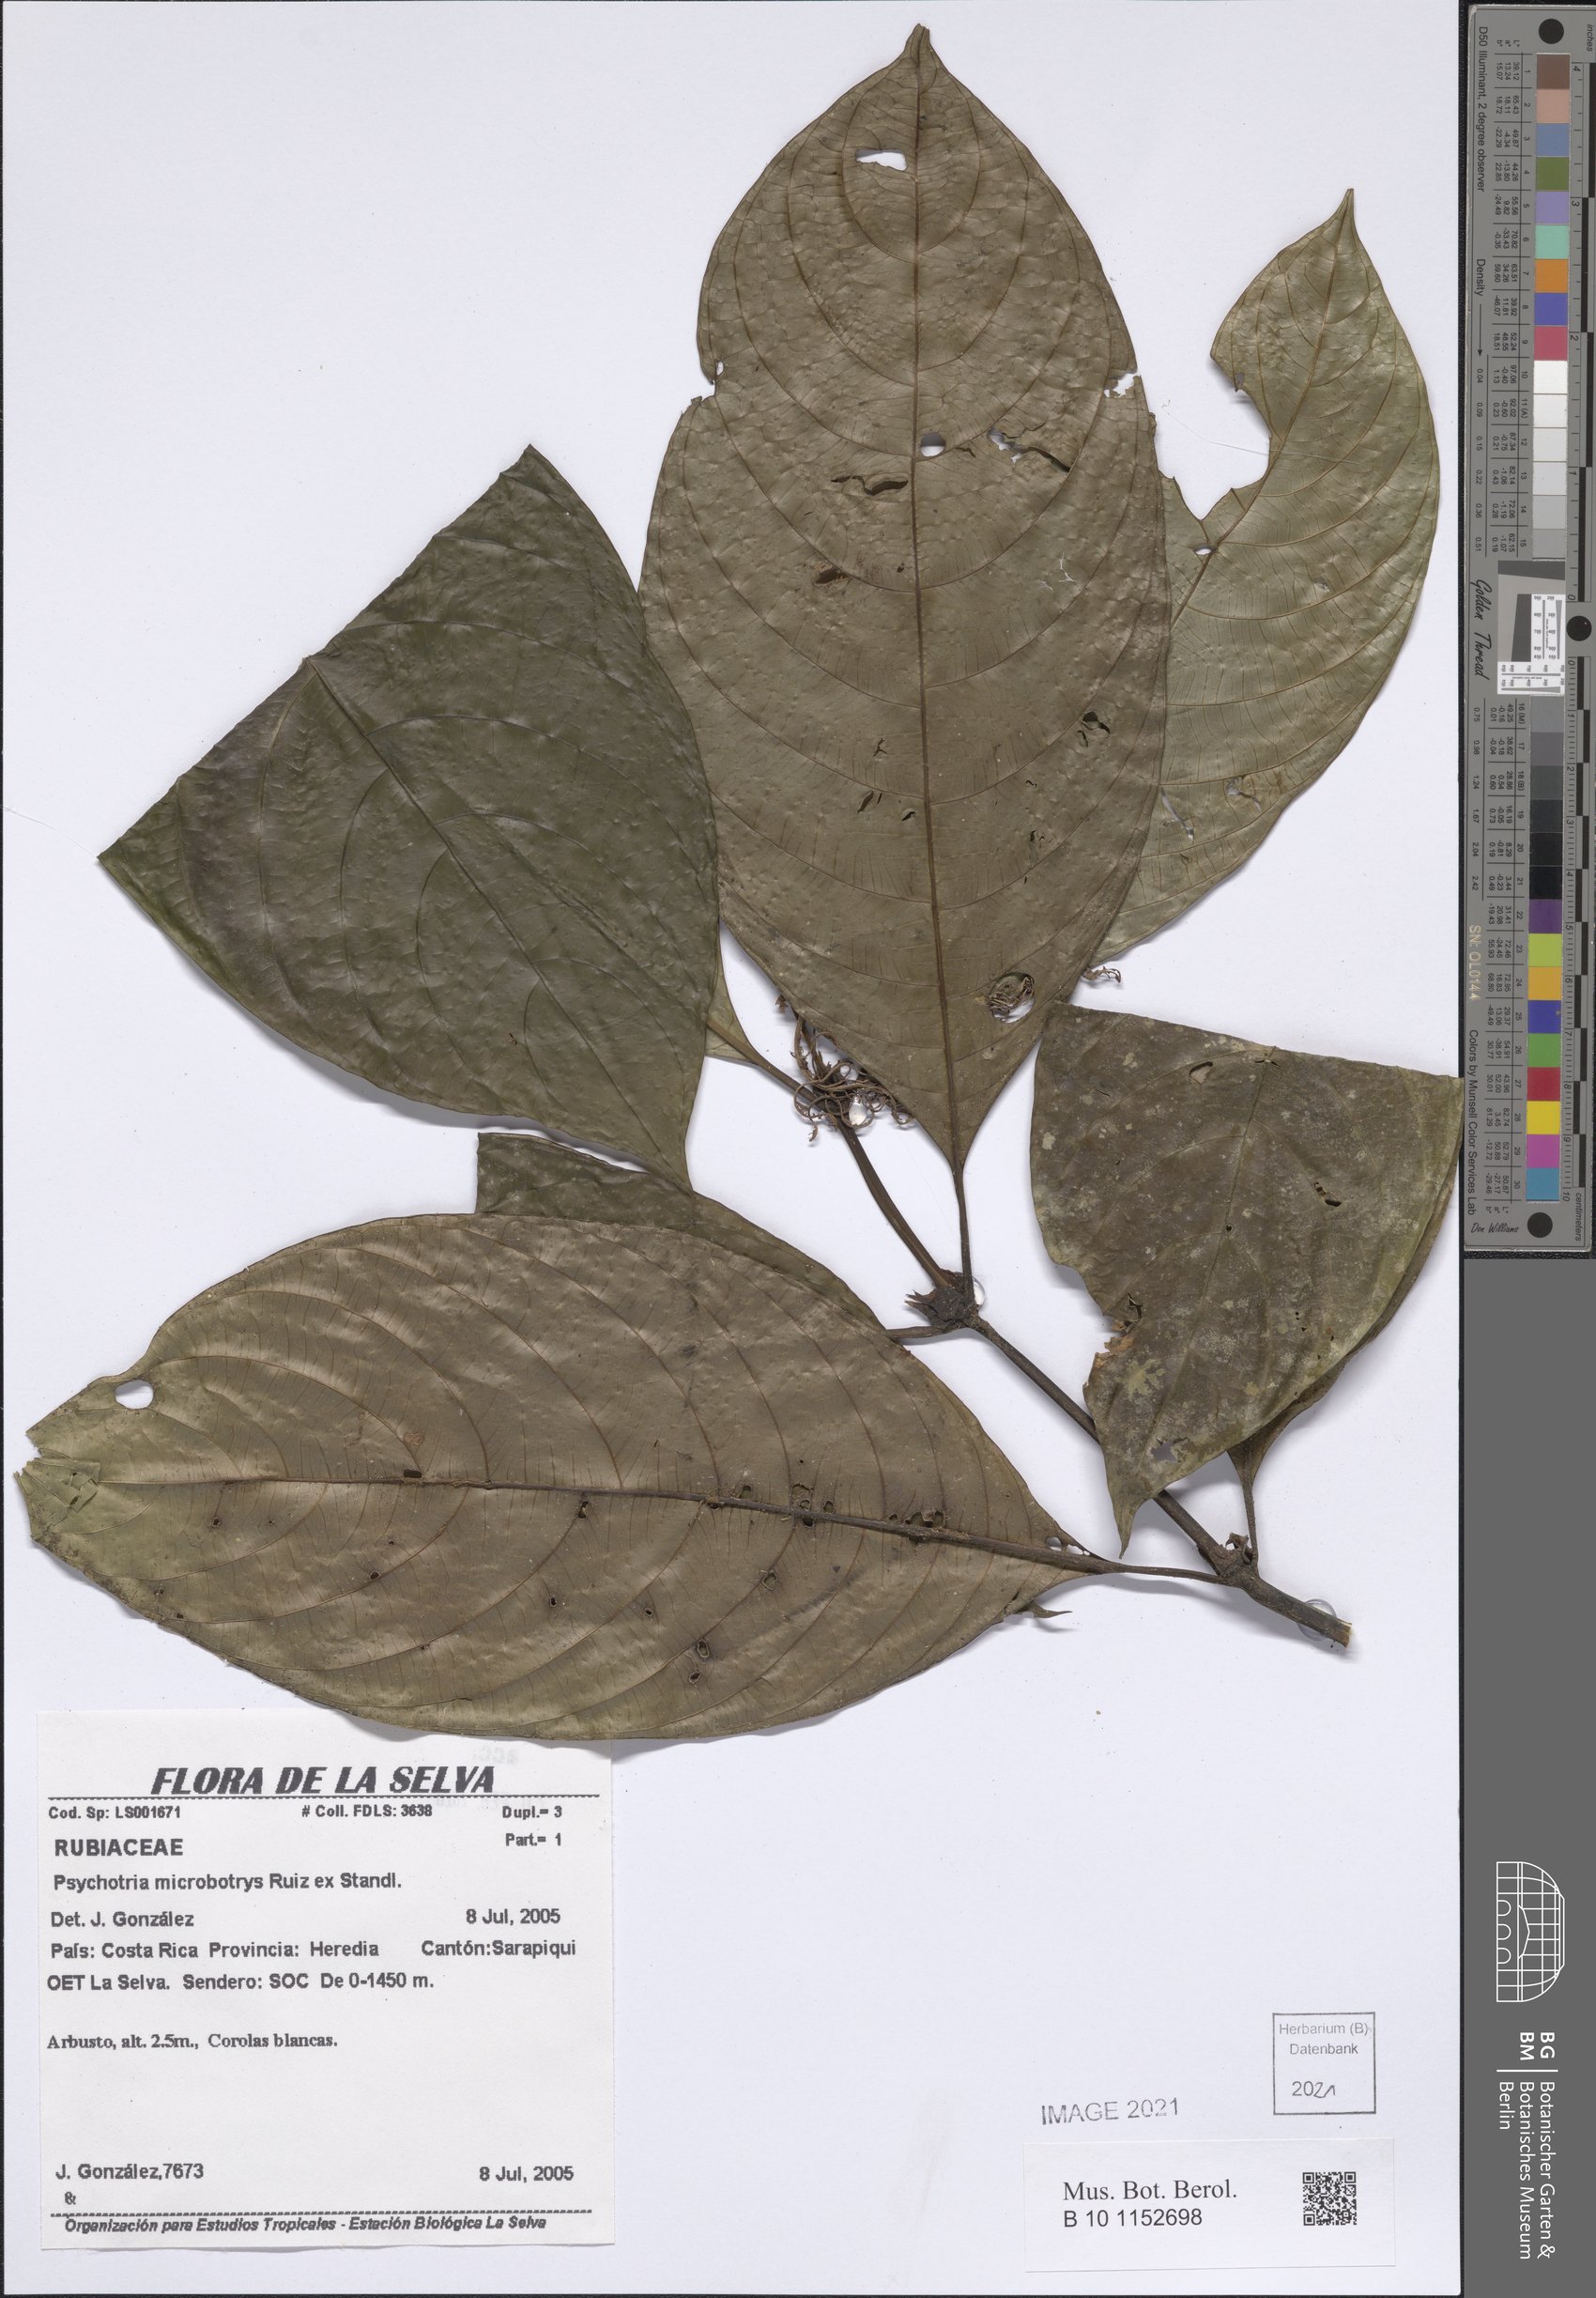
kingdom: Plantae
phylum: Tracheophyta
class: Magnoliopsida
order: Gentianales
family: Rubiaceae
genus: Palicourea
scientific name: Palicourea microbotrys
